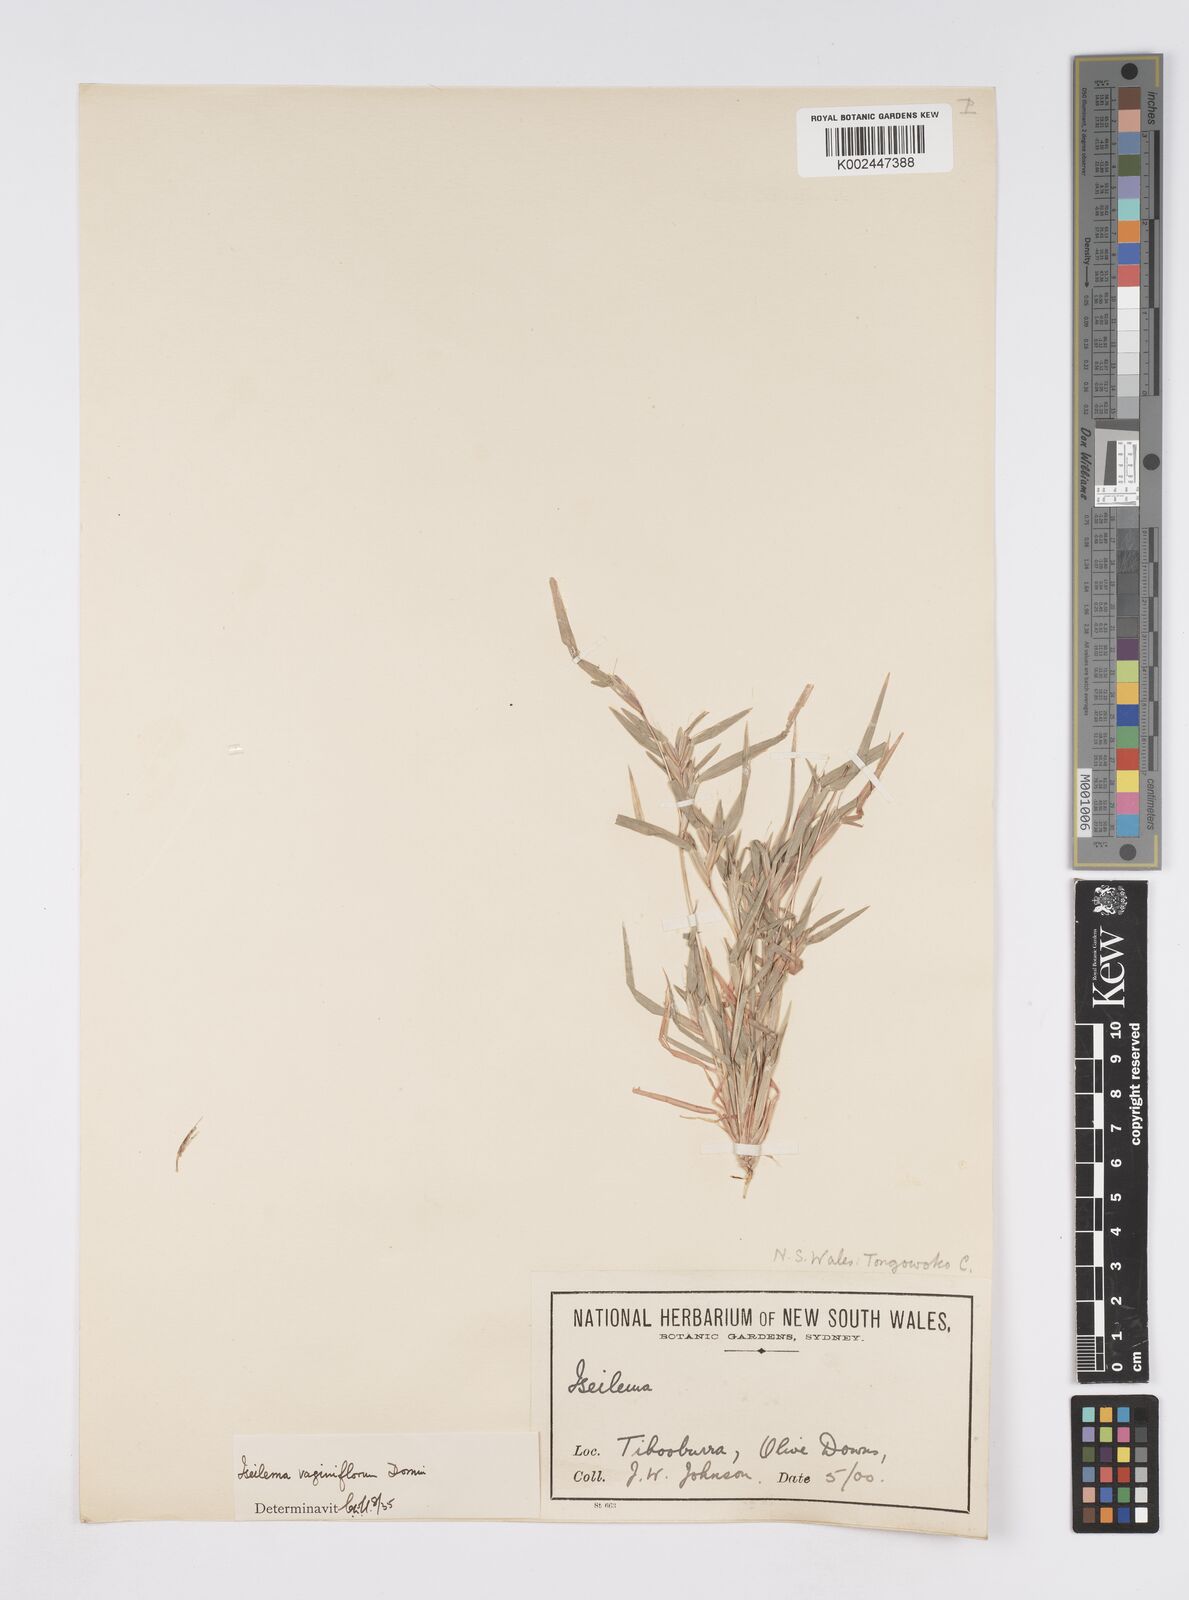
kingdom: Plantae
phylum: Tracheophyta
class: Liliopsida
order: Poales
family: Poaceae
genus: Iseilema
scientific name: Iseilema vaginiflorum
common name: Red flinders grass
